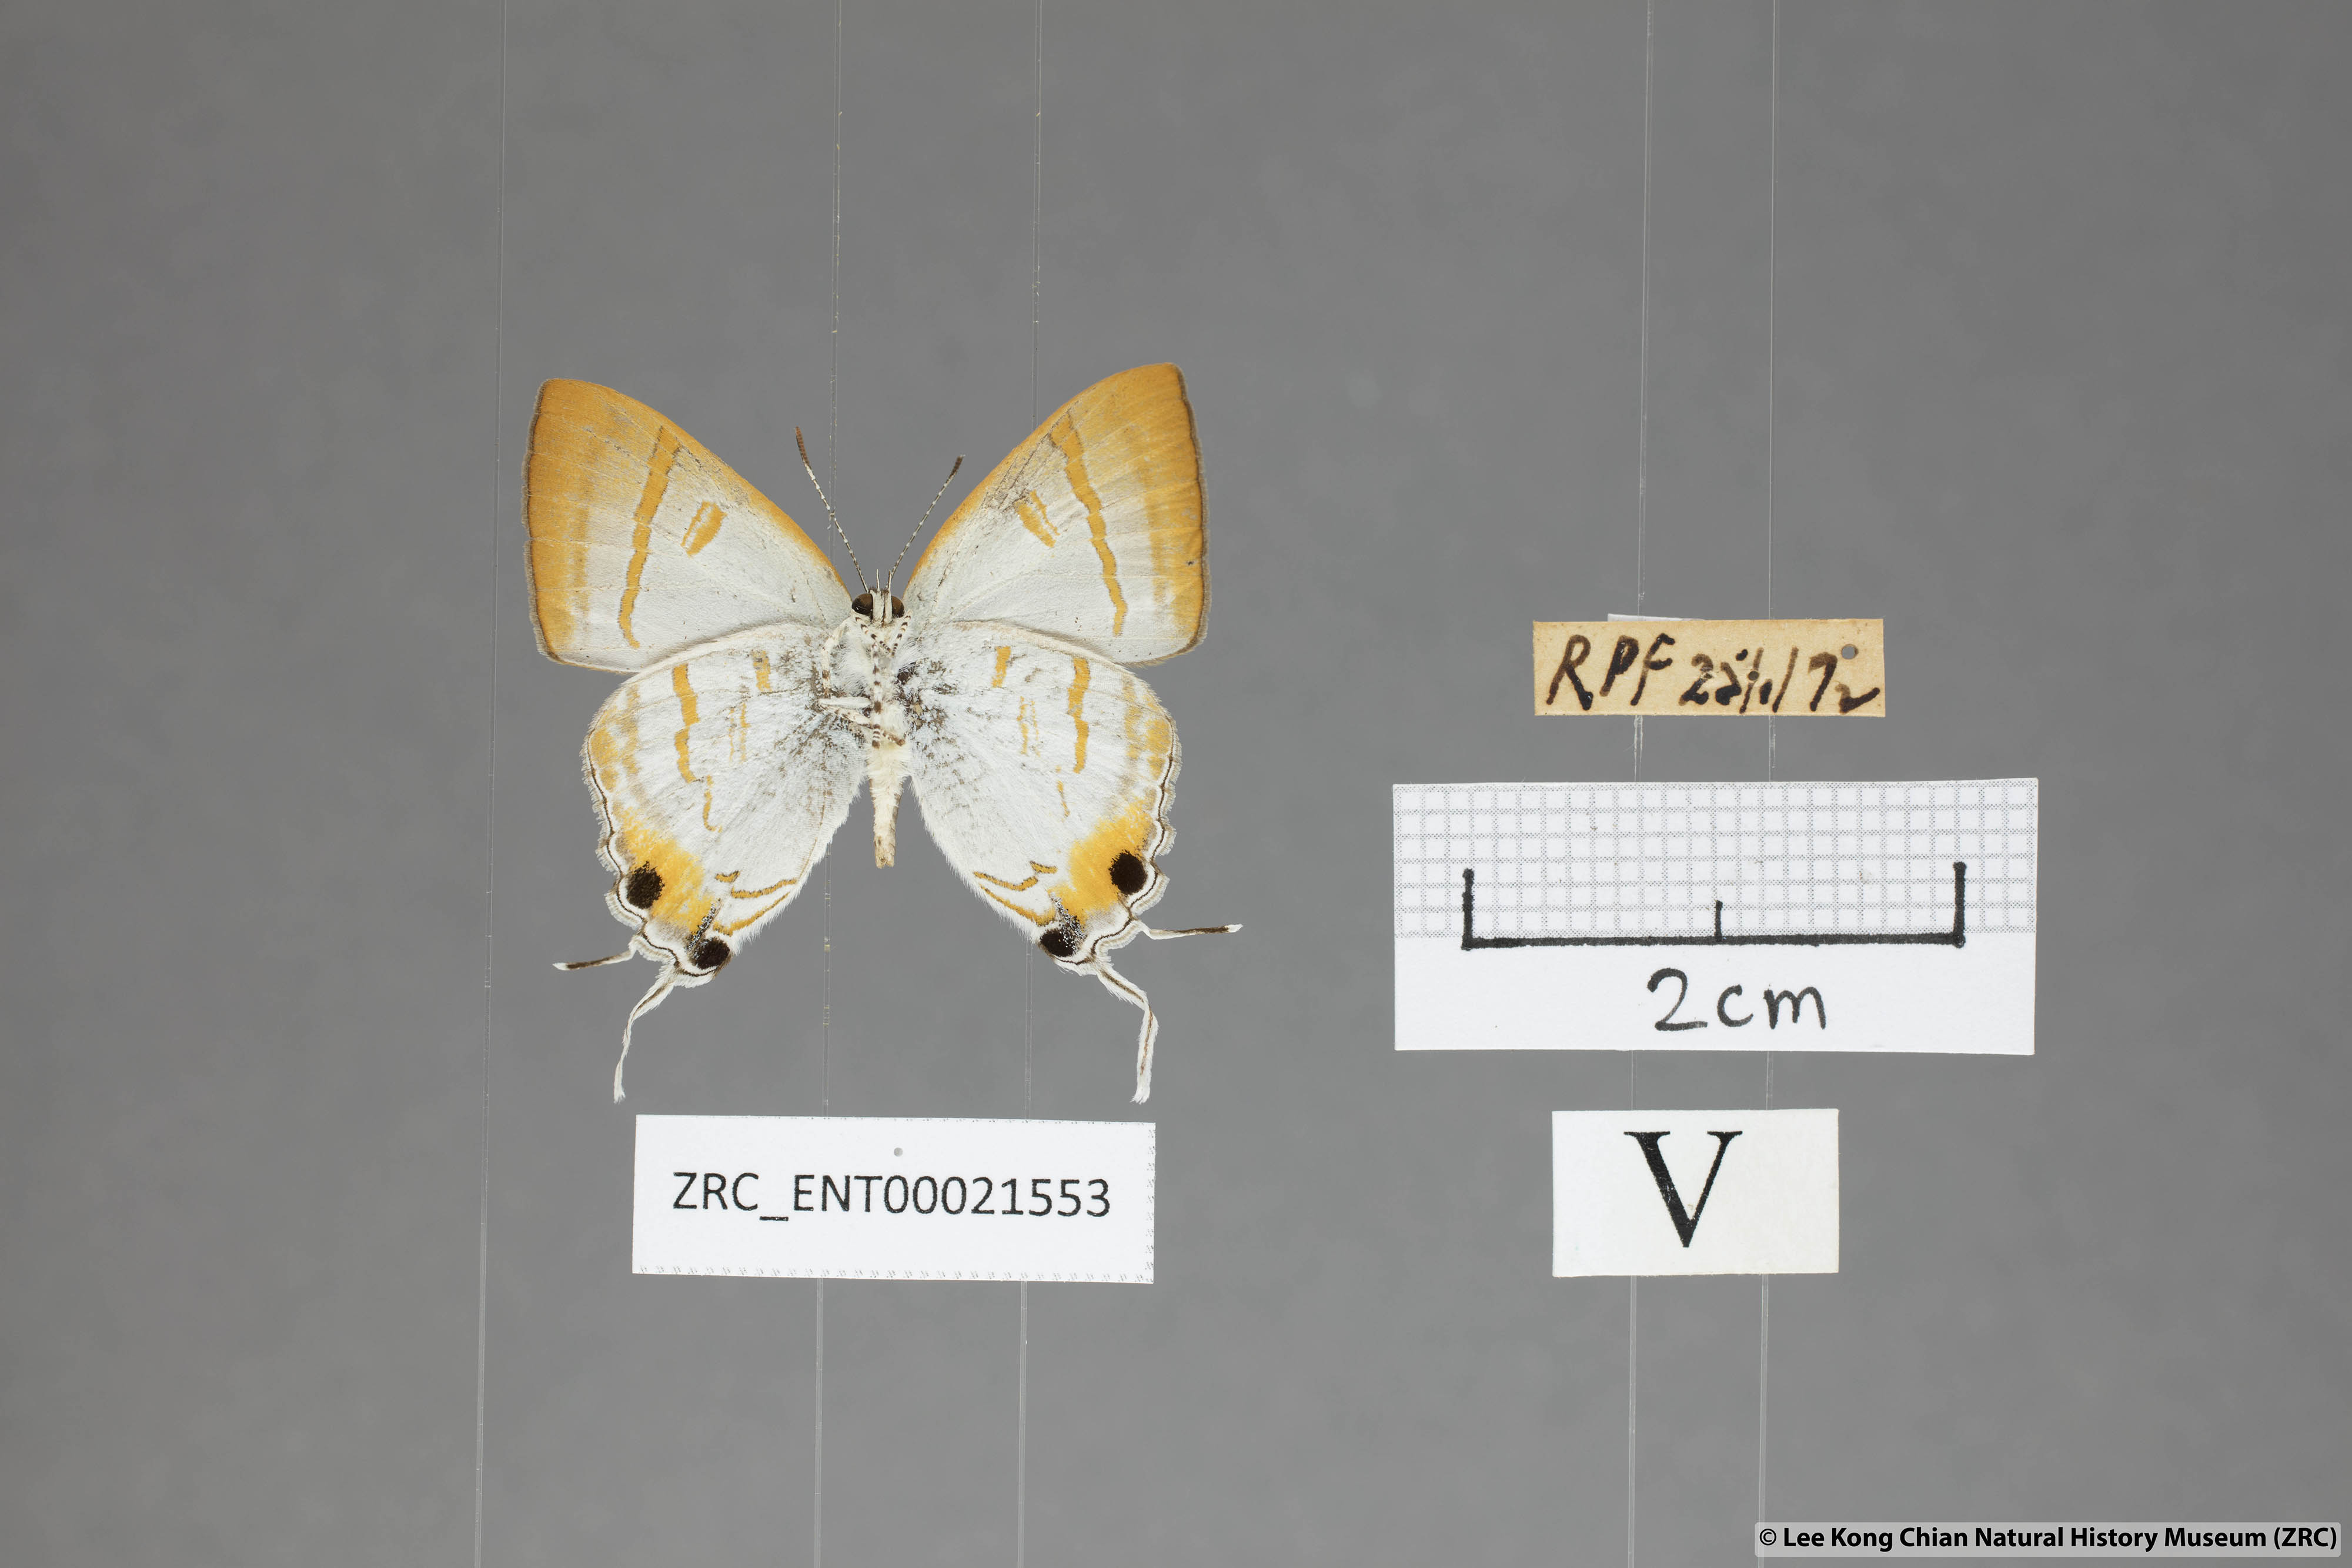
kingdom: Animalia
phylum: Arthropoda
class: Insecta
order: Lepidoptera
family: Lycaenidae
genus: Hypolycaena
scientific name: Hypolycaena thecloides
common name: Dark tit
